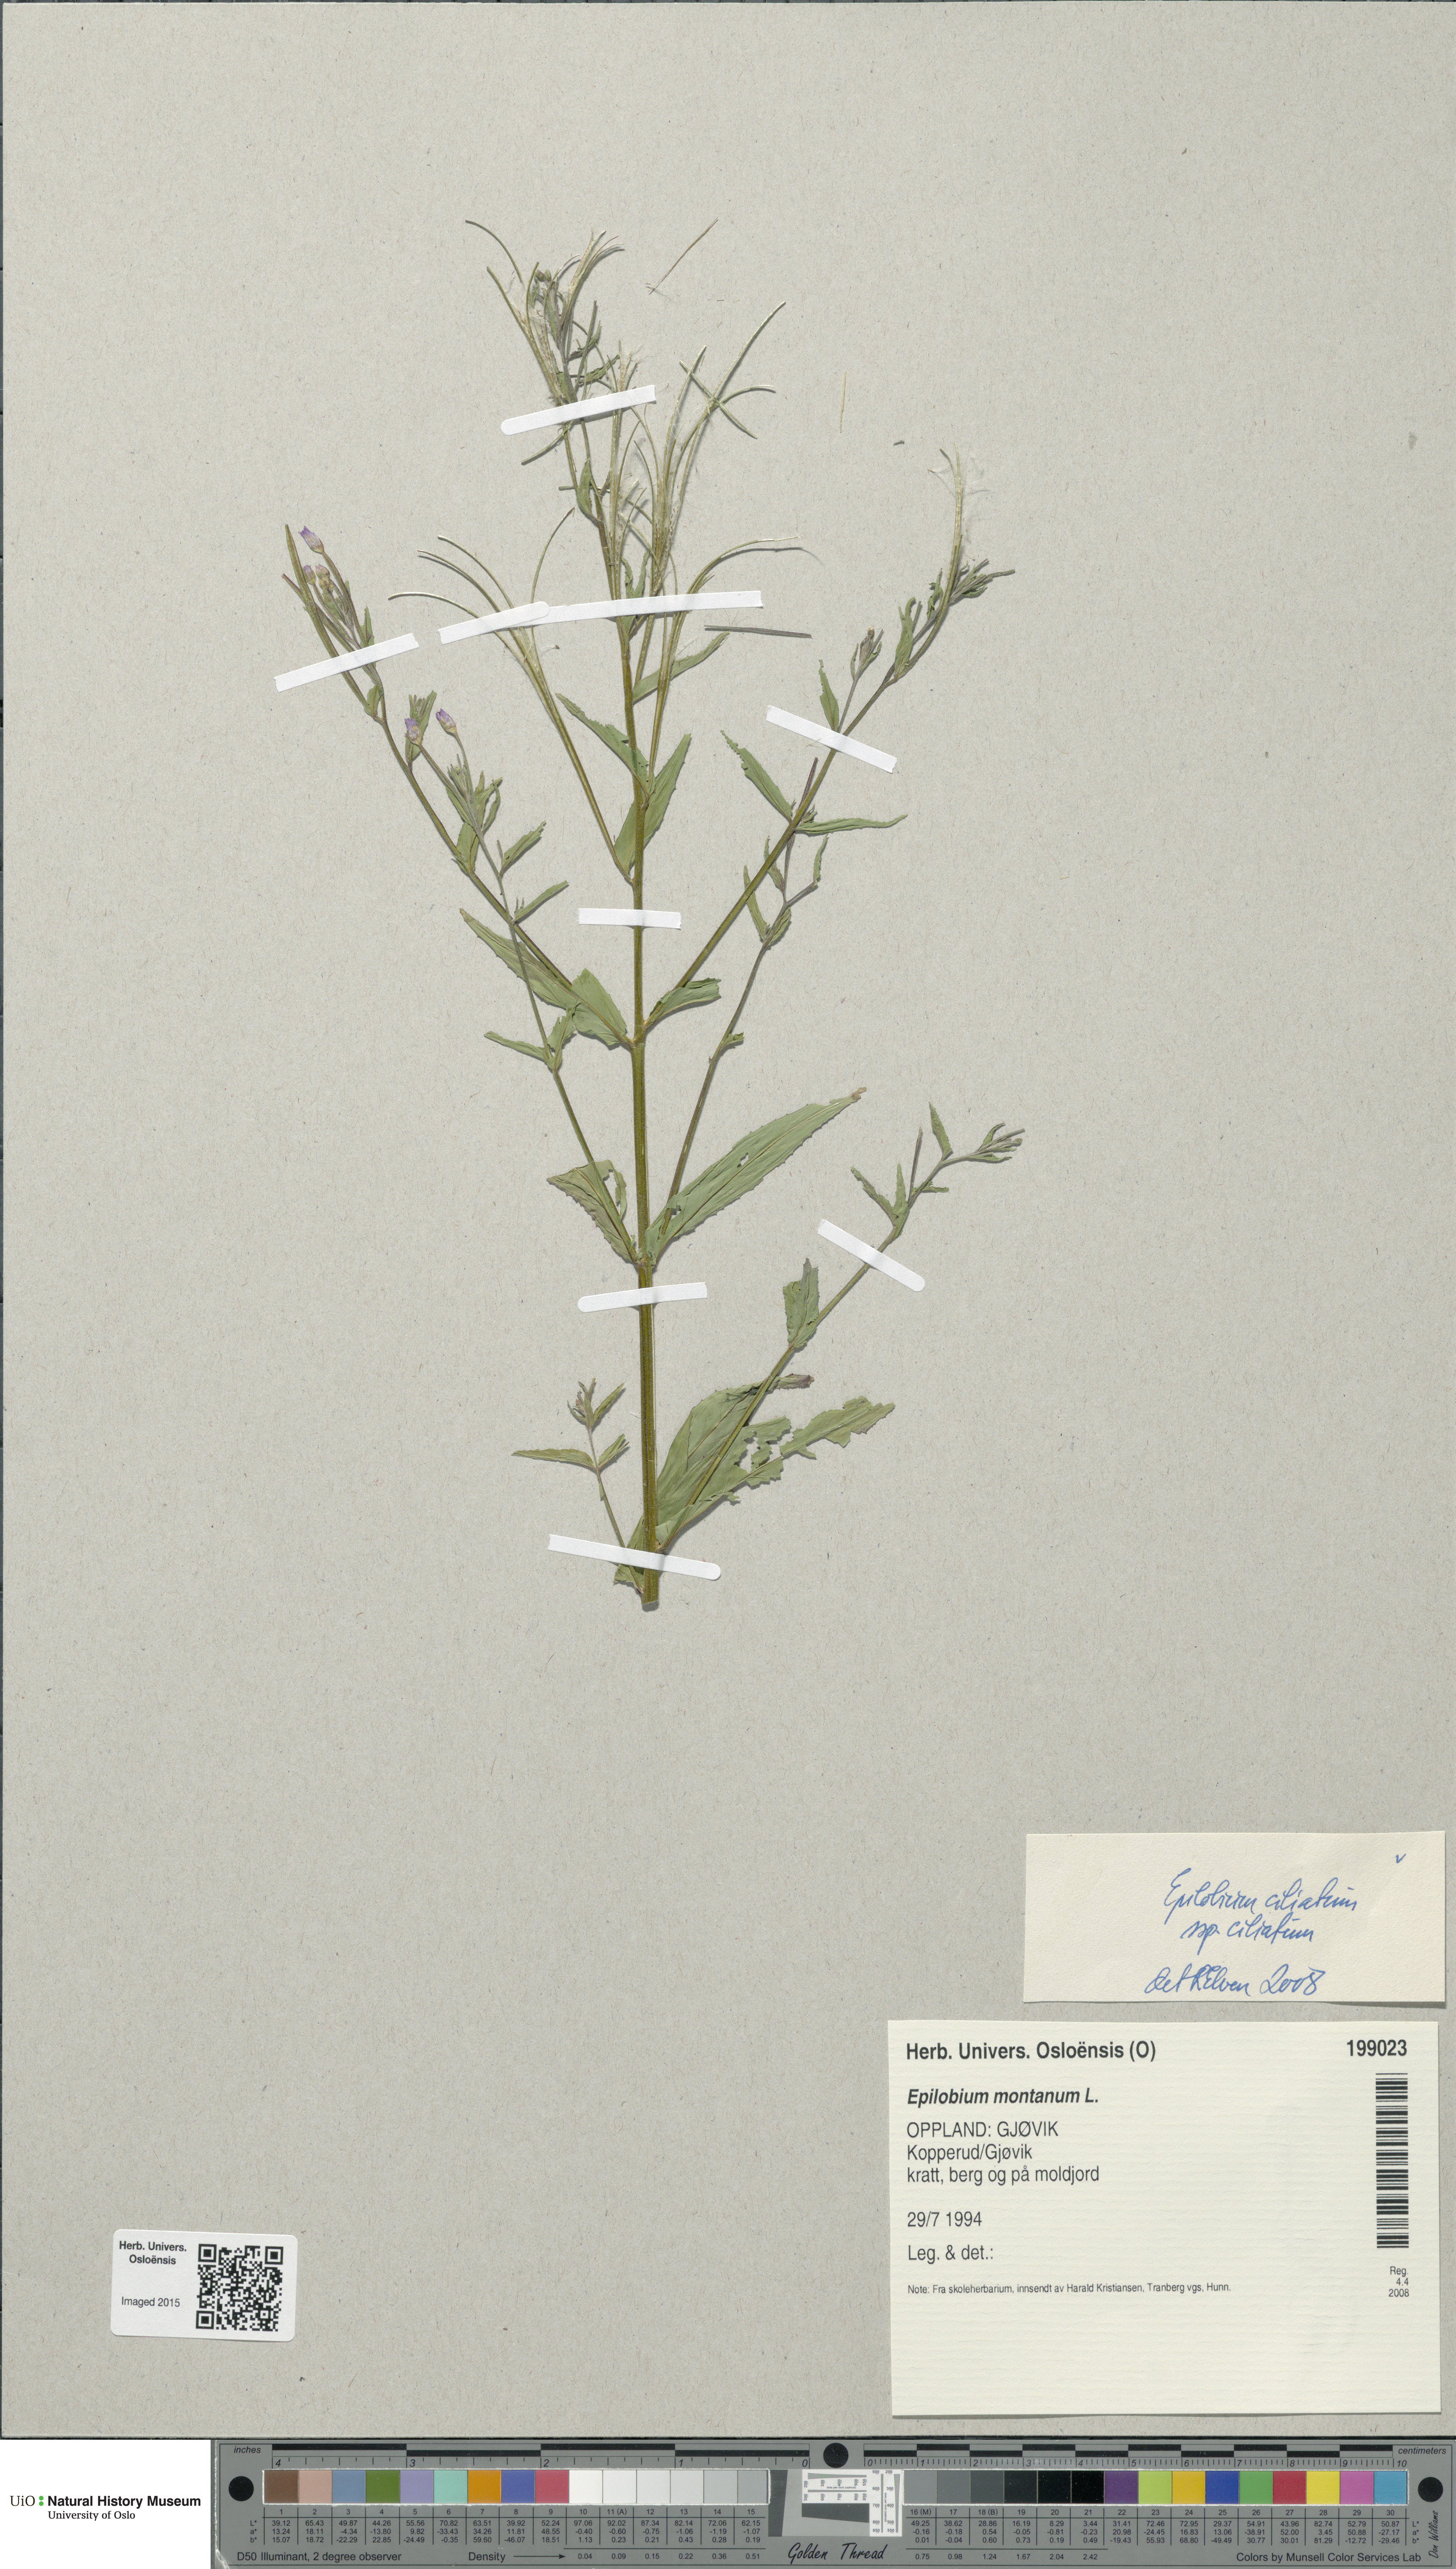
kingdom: Plantae
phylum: Tracheophyta
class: Magnoliopsida
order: Myrtales
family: Onagraceae
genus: Epilobium
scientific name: Epilobium ciliatum
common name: American willowherb
